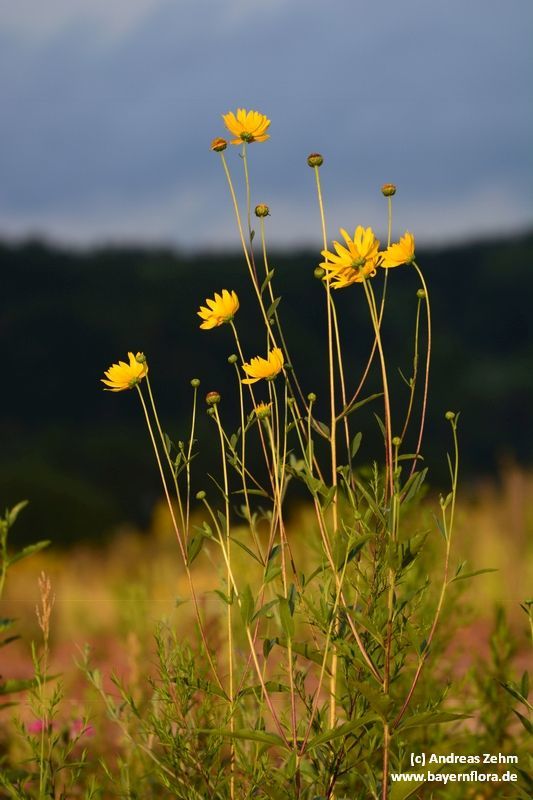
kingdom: Plantae
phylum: Tracheophyta
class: Magnoliopsida
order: Asterales
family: Asteraceae
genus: Helianthus
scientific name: Helianthus tuberosus
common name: Jerusalem artichoke
